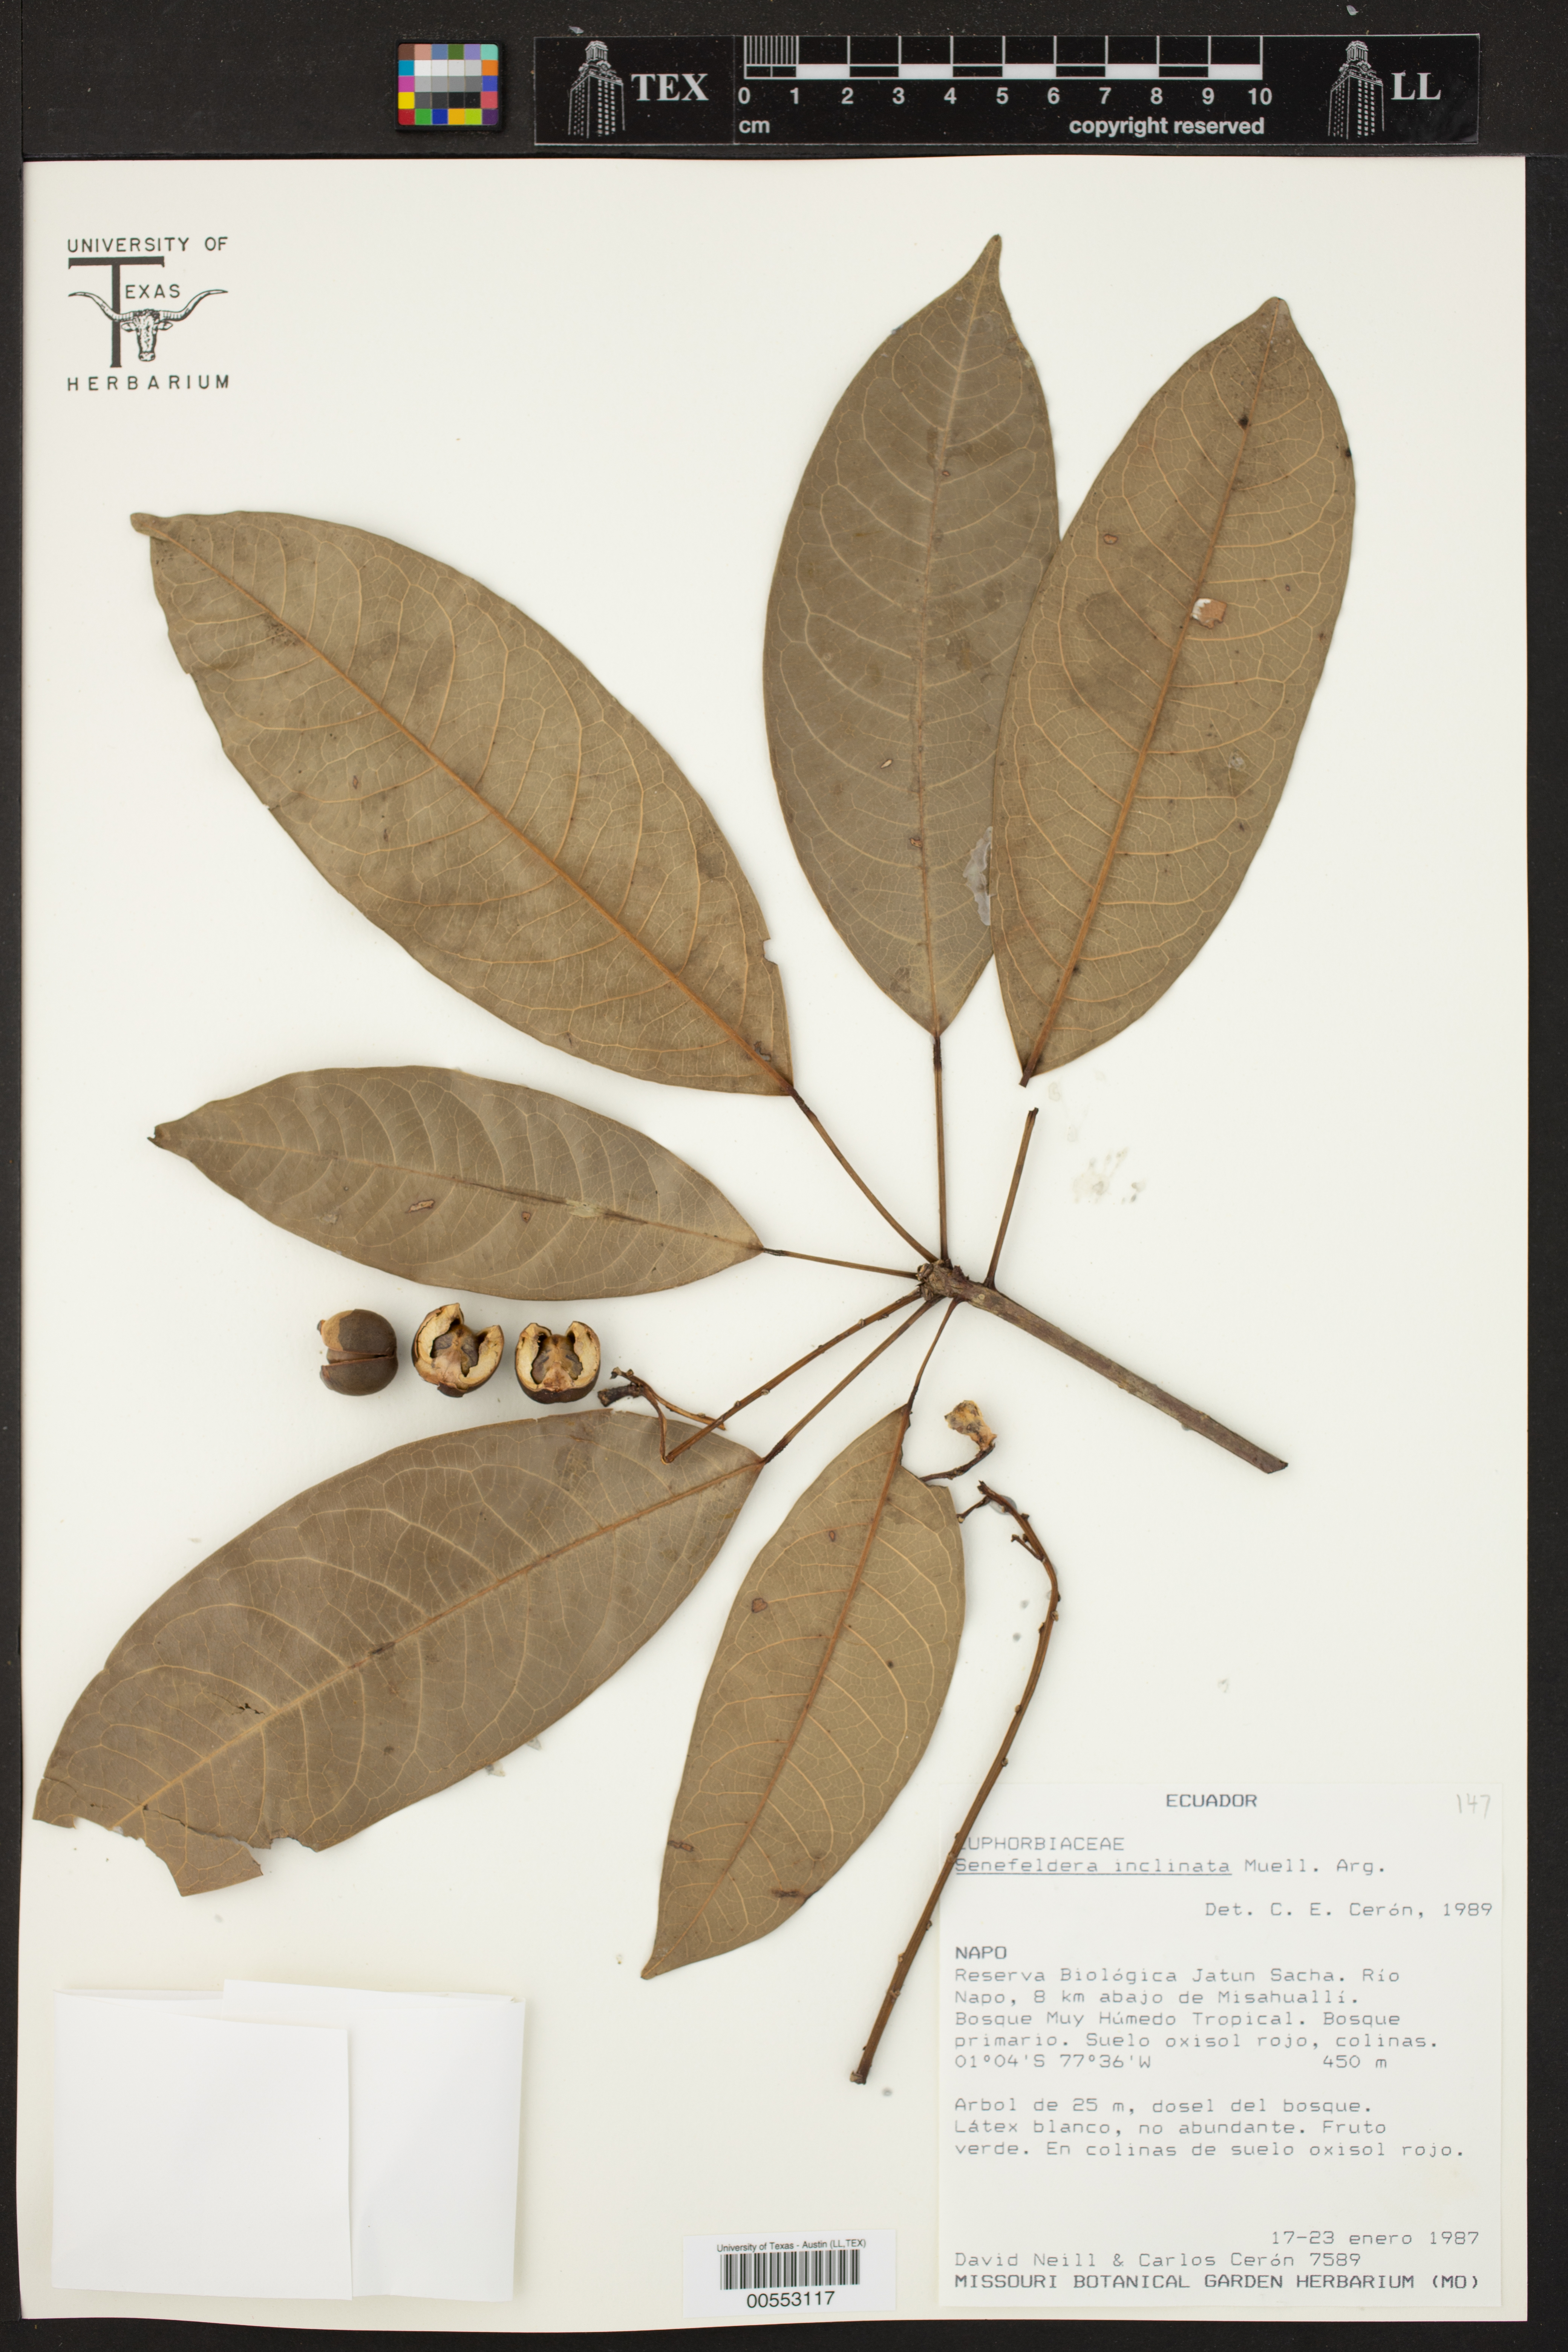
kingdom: Plantae
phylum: Tracheophyta
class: Magnoliopsida
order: Malpighiales
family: Euphorbiaceae
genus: Pseudosenefeldera
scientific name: Pseudosenefeldera inclinata
